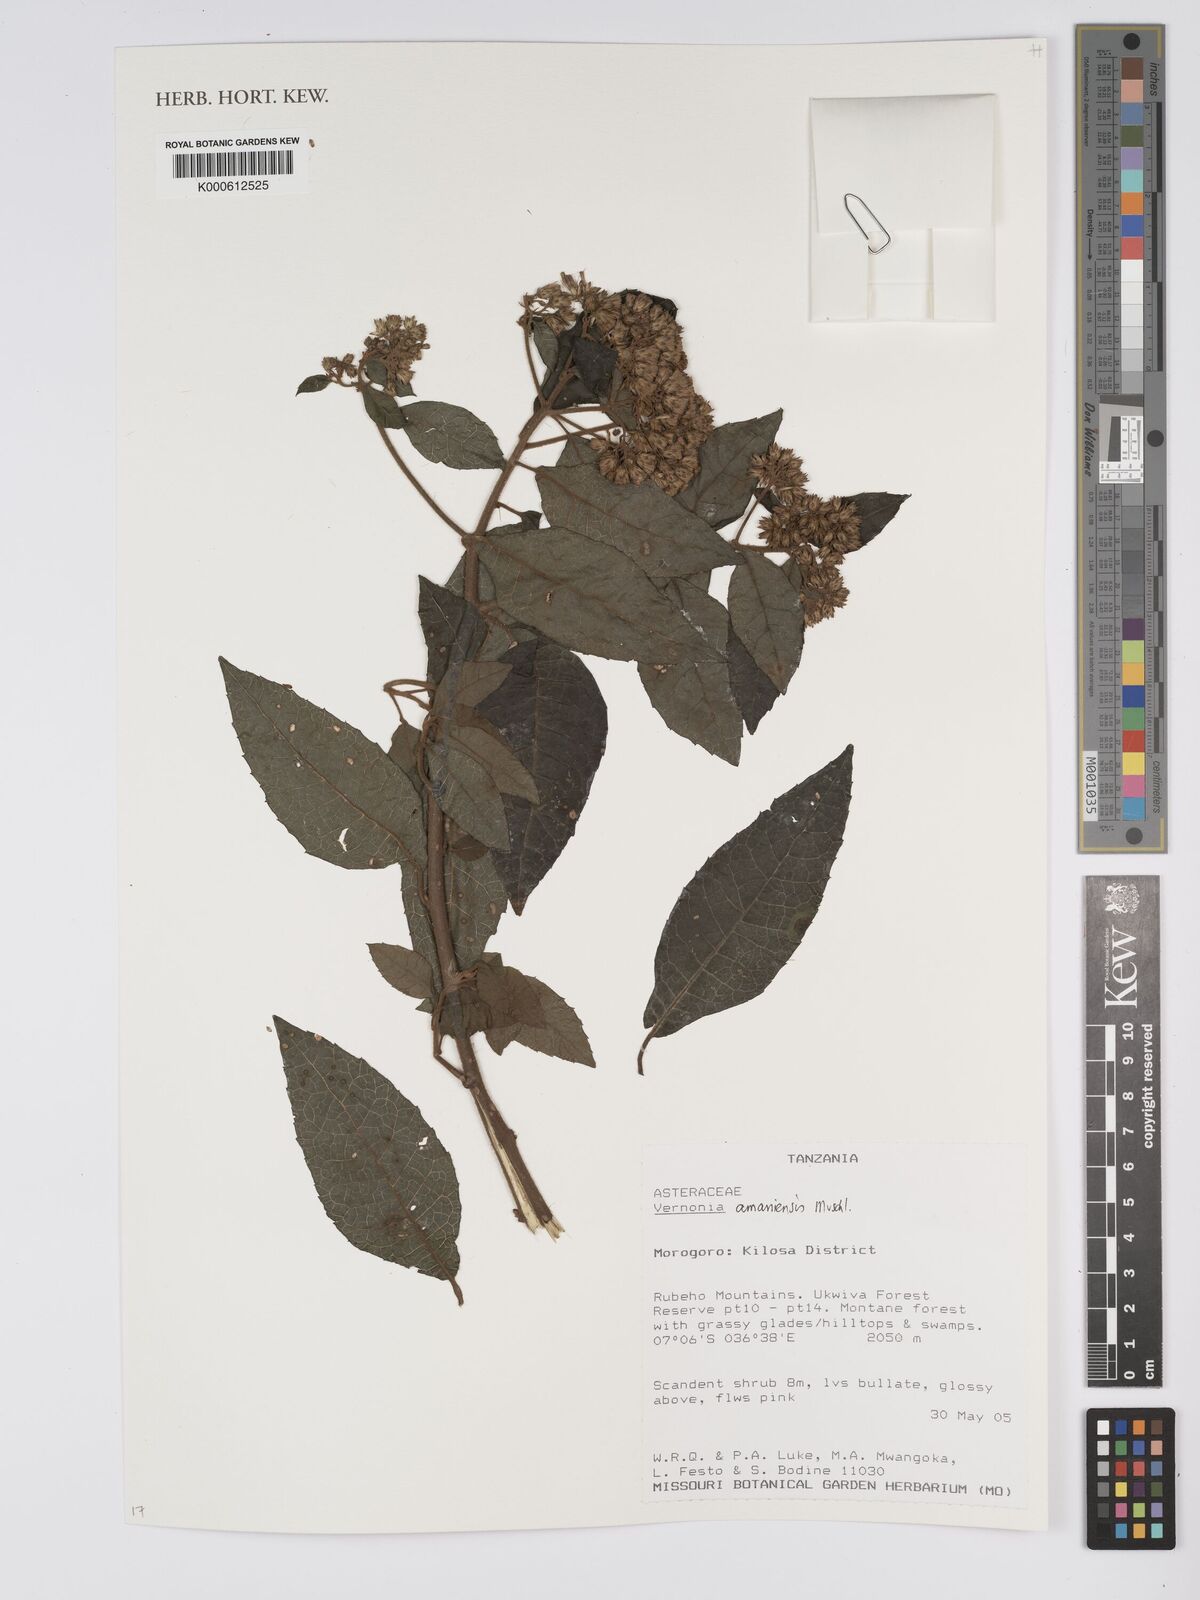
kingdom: Plantae
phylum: Tracheophyta
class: Magnoliopsida
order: Asterales
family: Asteraceae
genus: Jeffreycia
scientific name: Jeffreycia amaniensis
